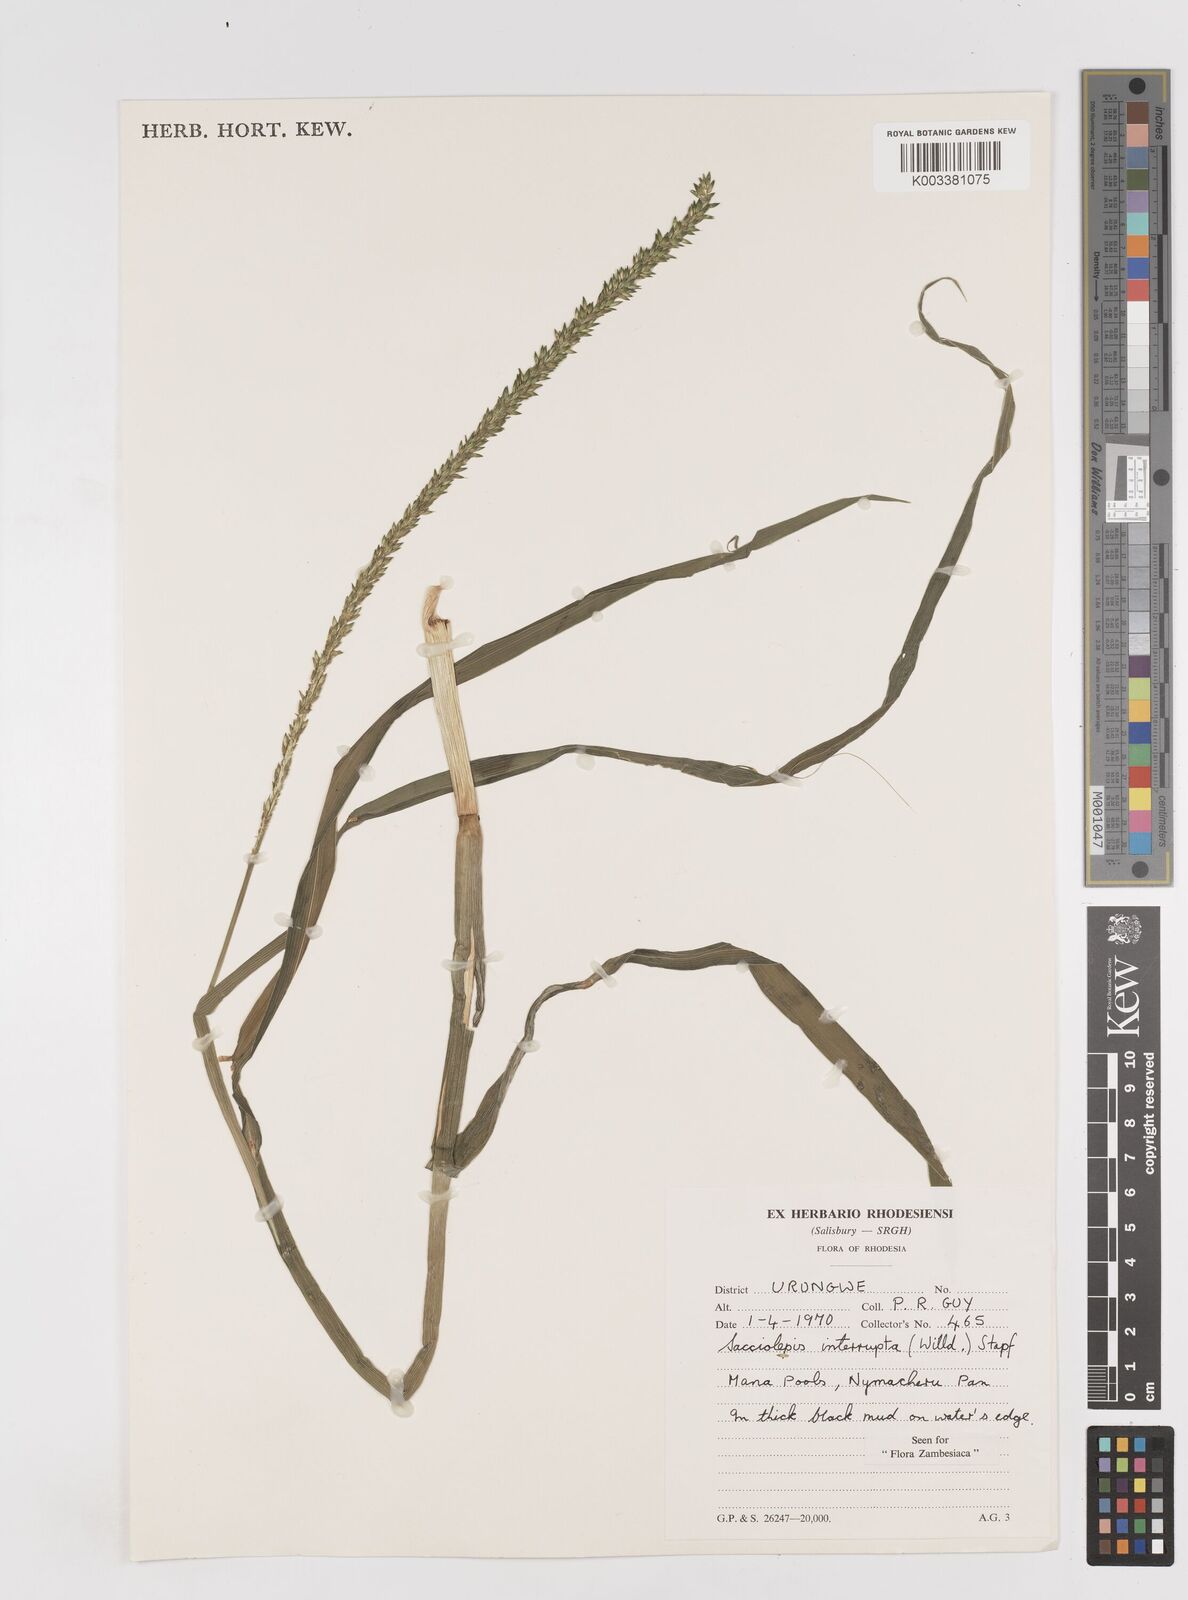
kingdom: Plantae
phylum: Tracheophyta
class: Liliopsida
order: Poales
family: Poaceae
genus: Sacciolepis
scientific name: Sacciolepis interrupta
